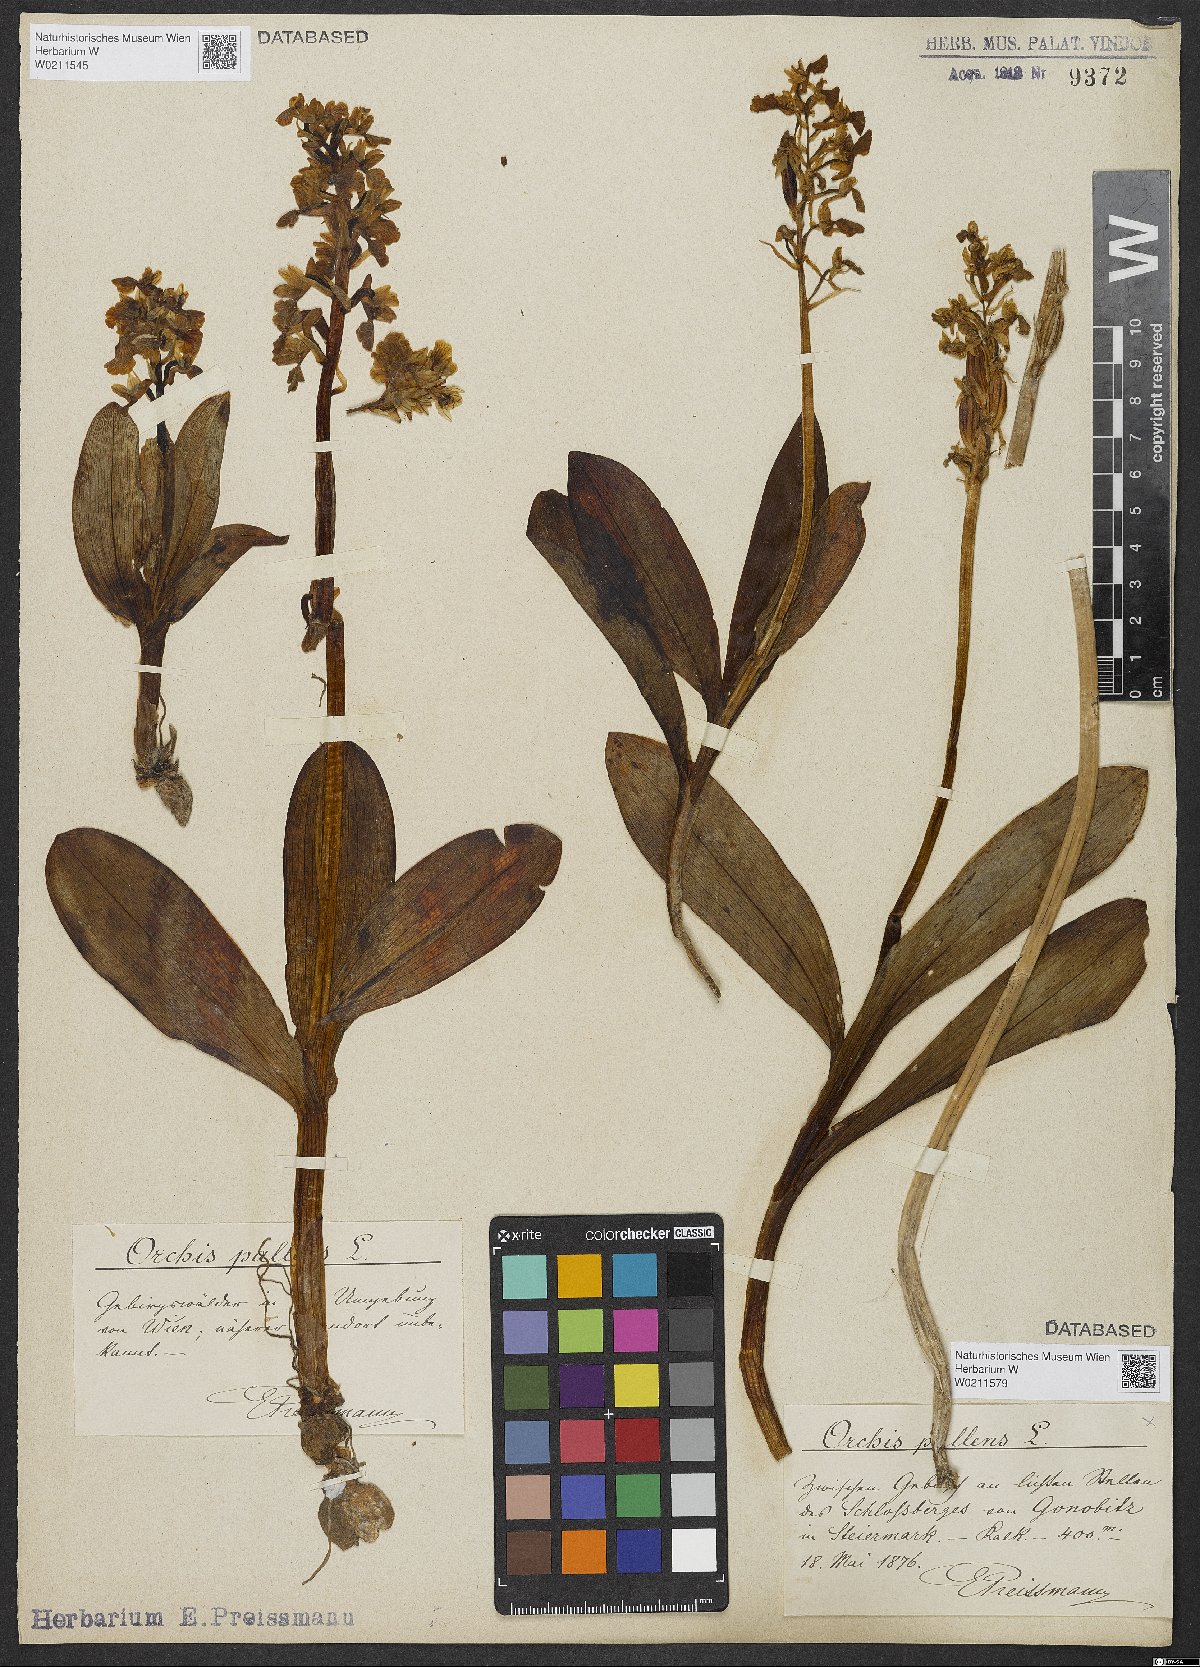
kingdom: Plantae
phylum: Tracheophyta
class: Liliopsida
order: Asparagales
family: Orchidaceae
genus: Orchis
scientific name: Orchis pallens
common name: Pale-flowered orchid
